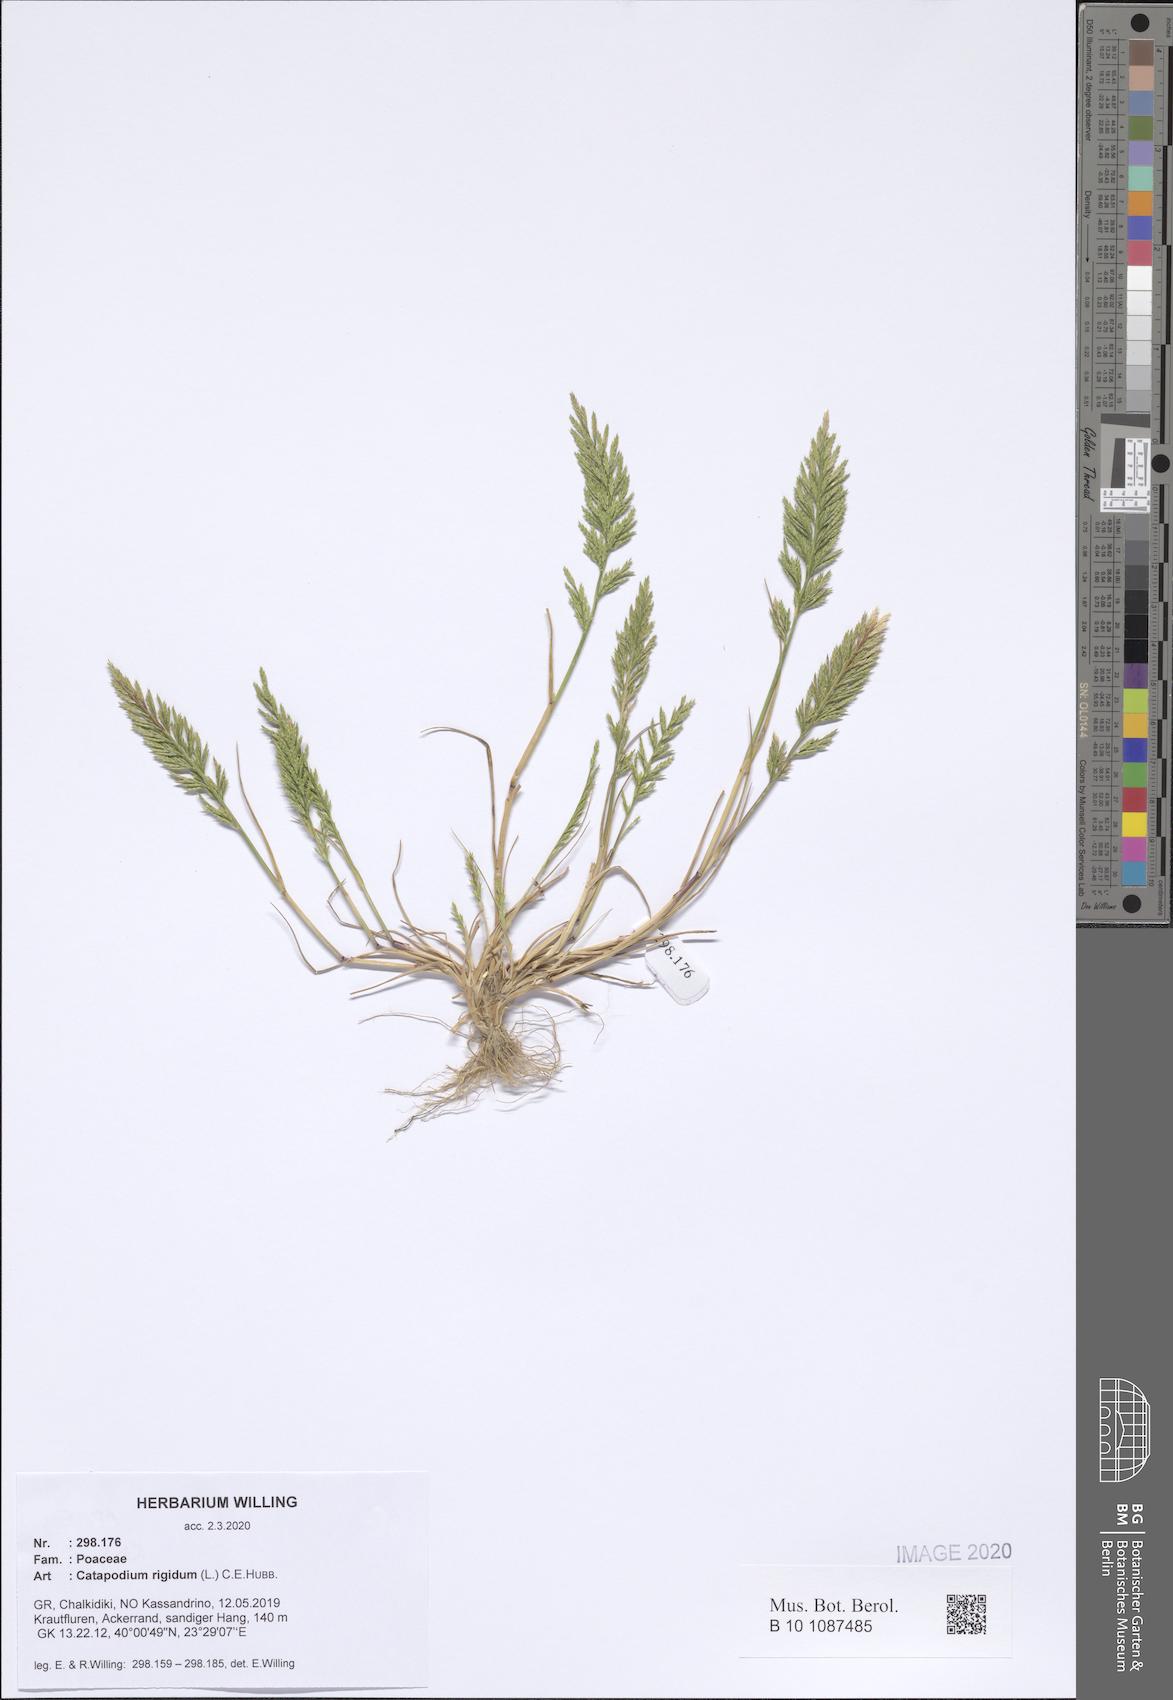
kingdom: Plantae
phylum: Tracheophyta
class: Liliopsida
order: Poales
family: Poaceae
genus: Catapodium
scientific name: Catapodium rigidum
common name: Fern-grass
